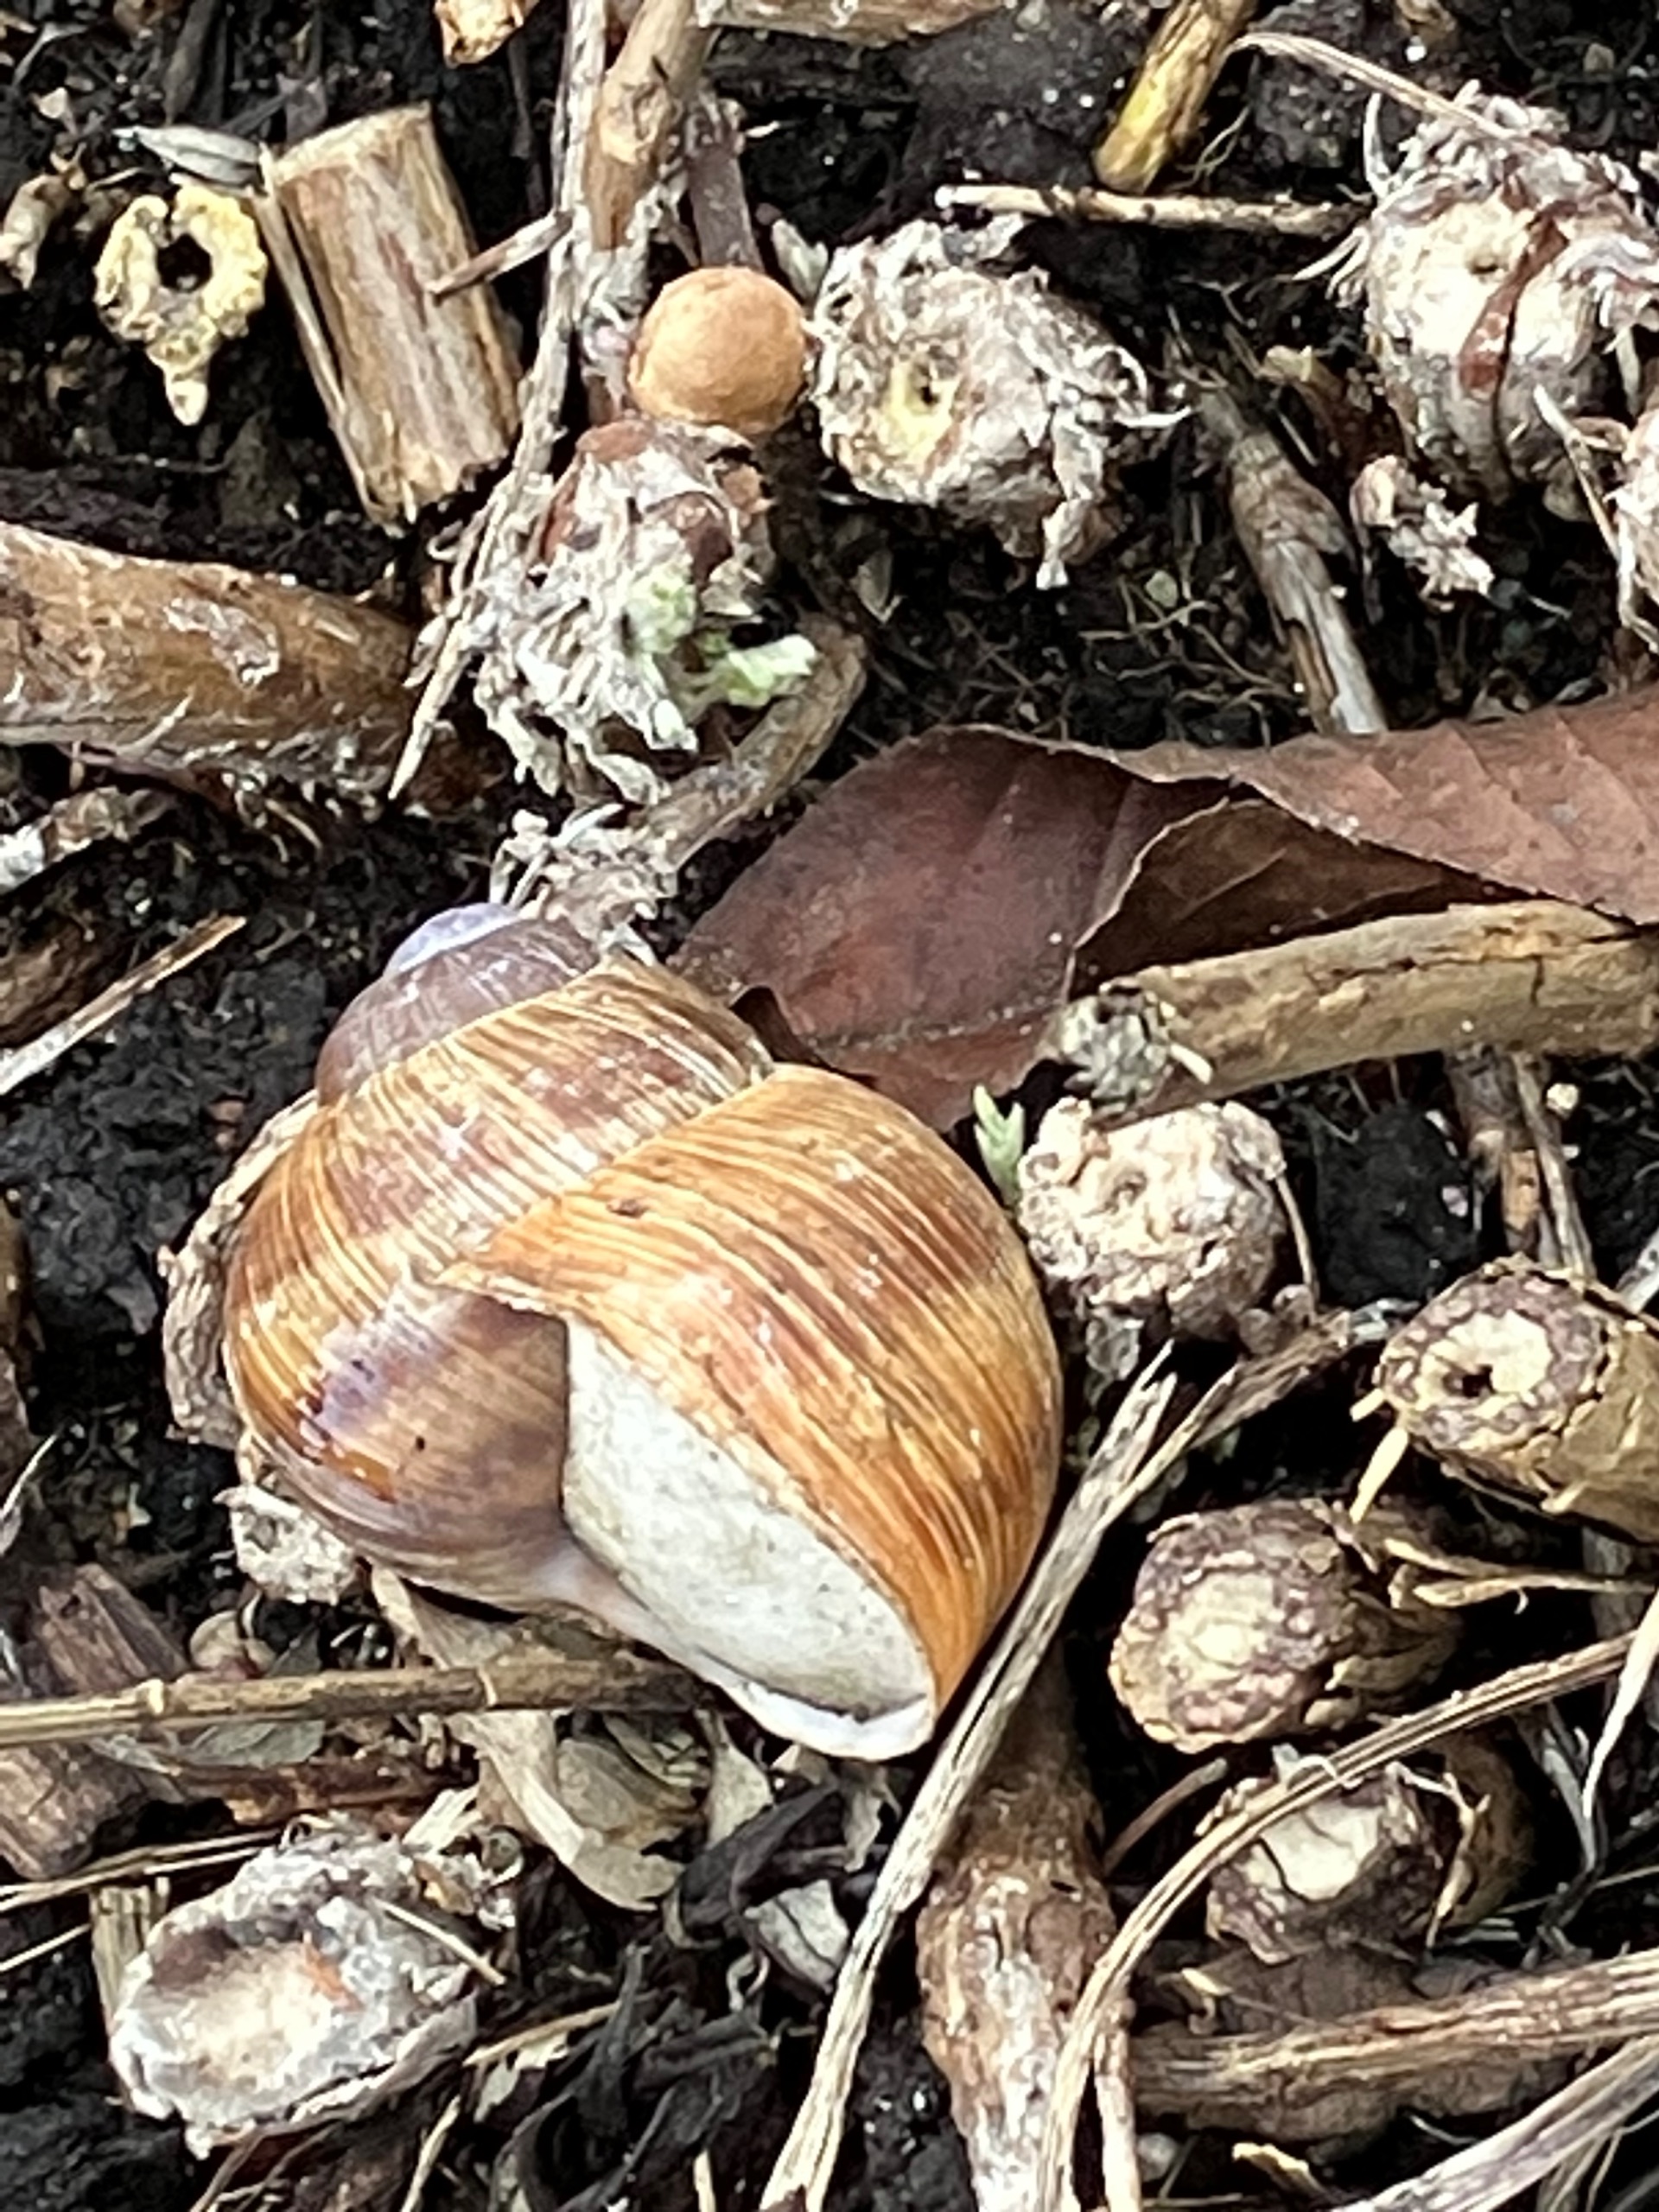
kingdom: Animalia
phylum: Mollusca
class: Gastropoda
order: Stylommatophora
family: Helicidae
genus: Helix
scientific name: Helix pomatia
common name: Vinbjergsnegl
